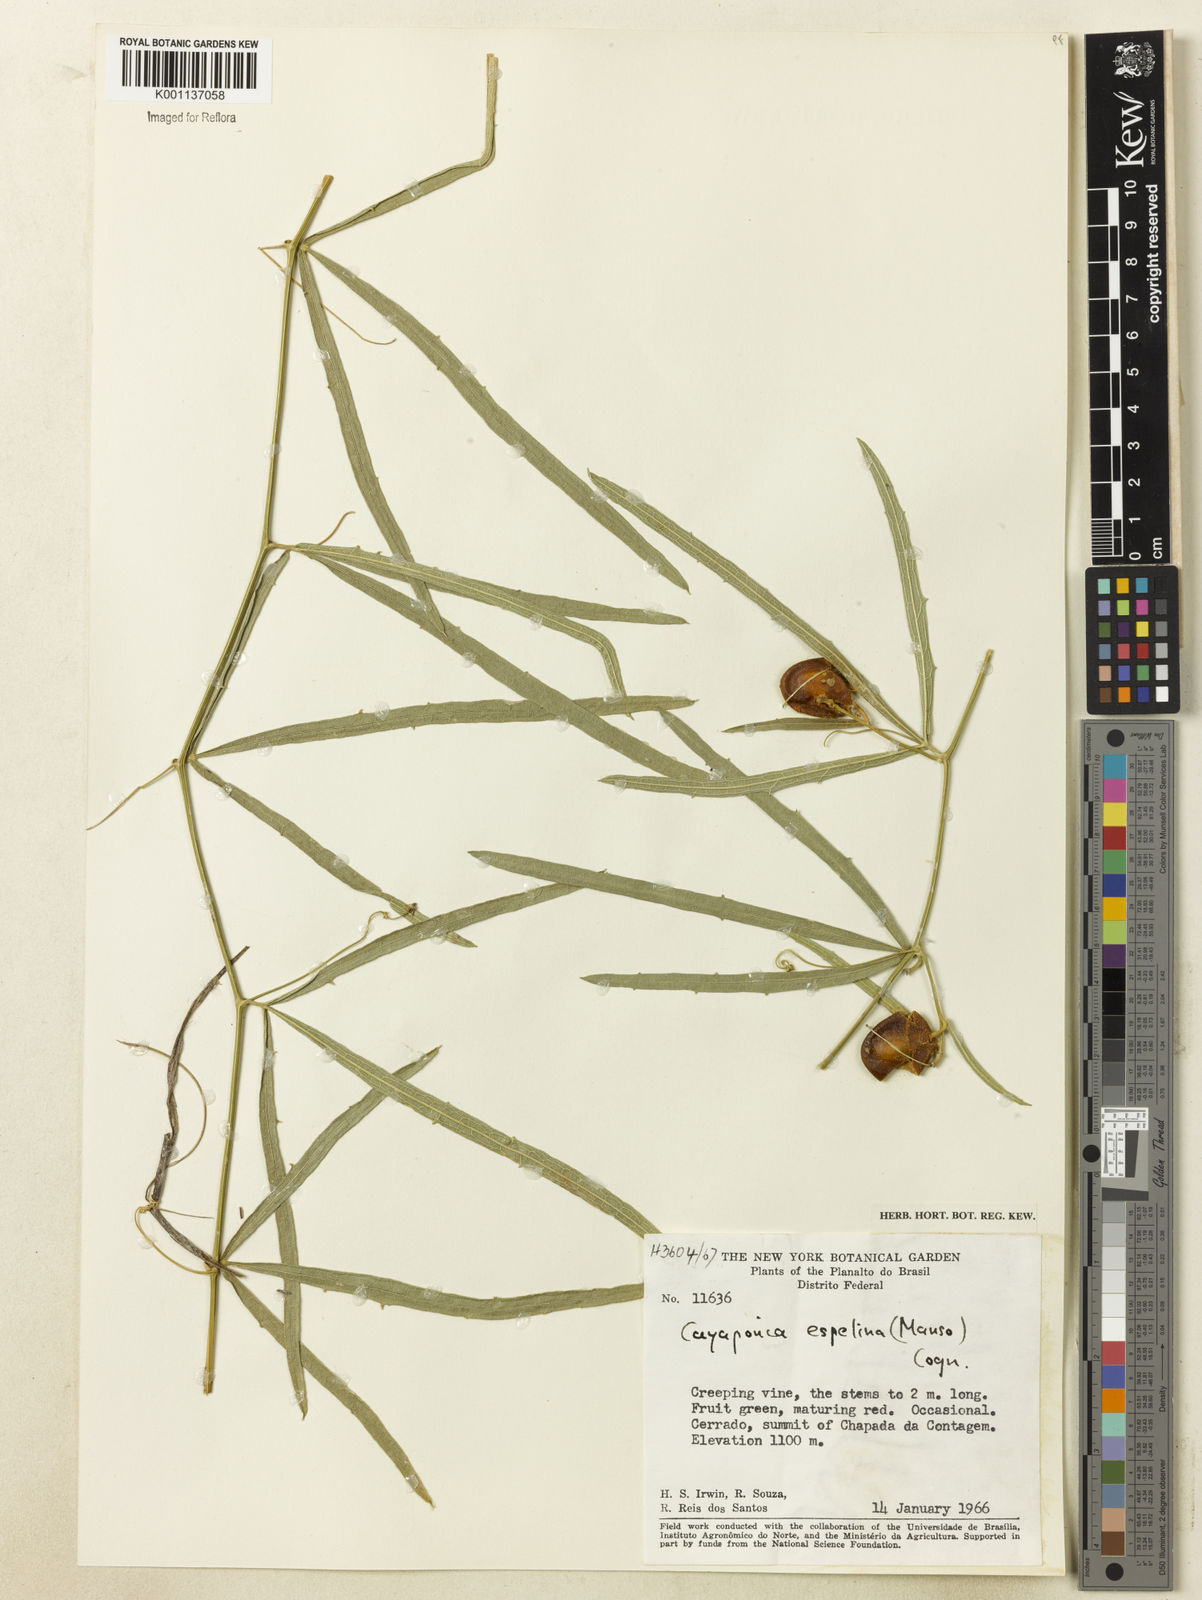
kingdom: Plantae
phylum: Tracheophyta
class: Magnoliopsida
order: Cucurbitales
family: Cucurbitaceae
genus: Cayaponia
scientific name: Cayaponia espelina
